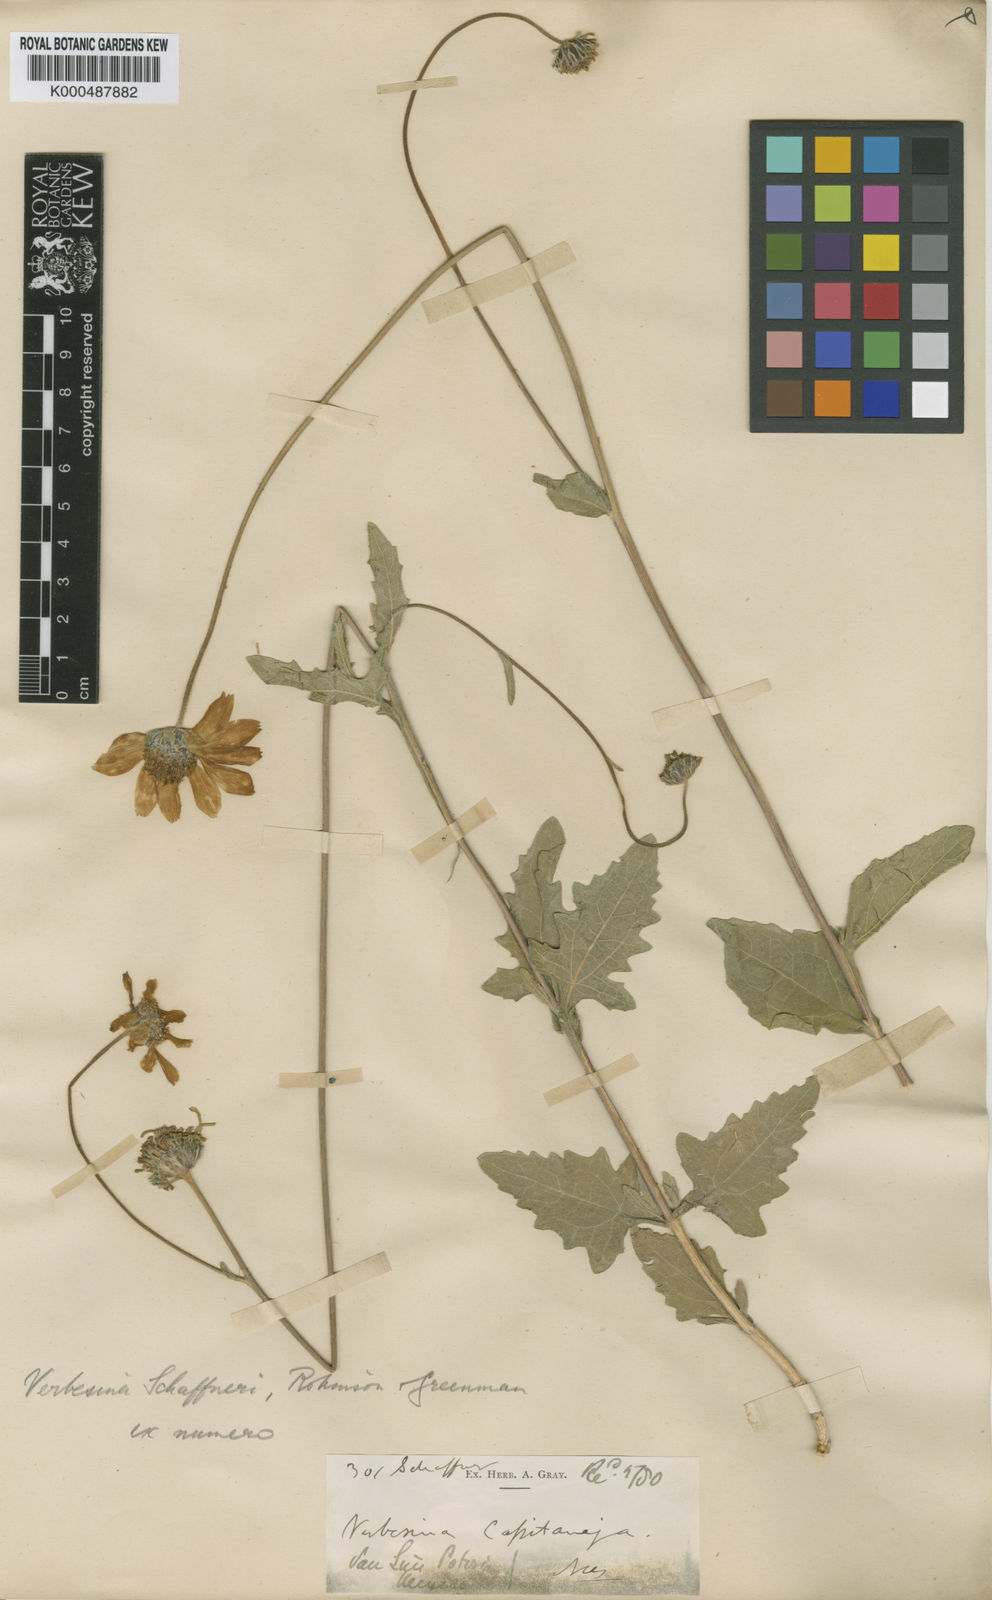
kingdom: Plantae
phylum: Tracheophyta
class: Magnoliopsida
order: Asterales
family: Asteraceae
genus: Verbesina
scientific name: Verbesina pedunculosa
